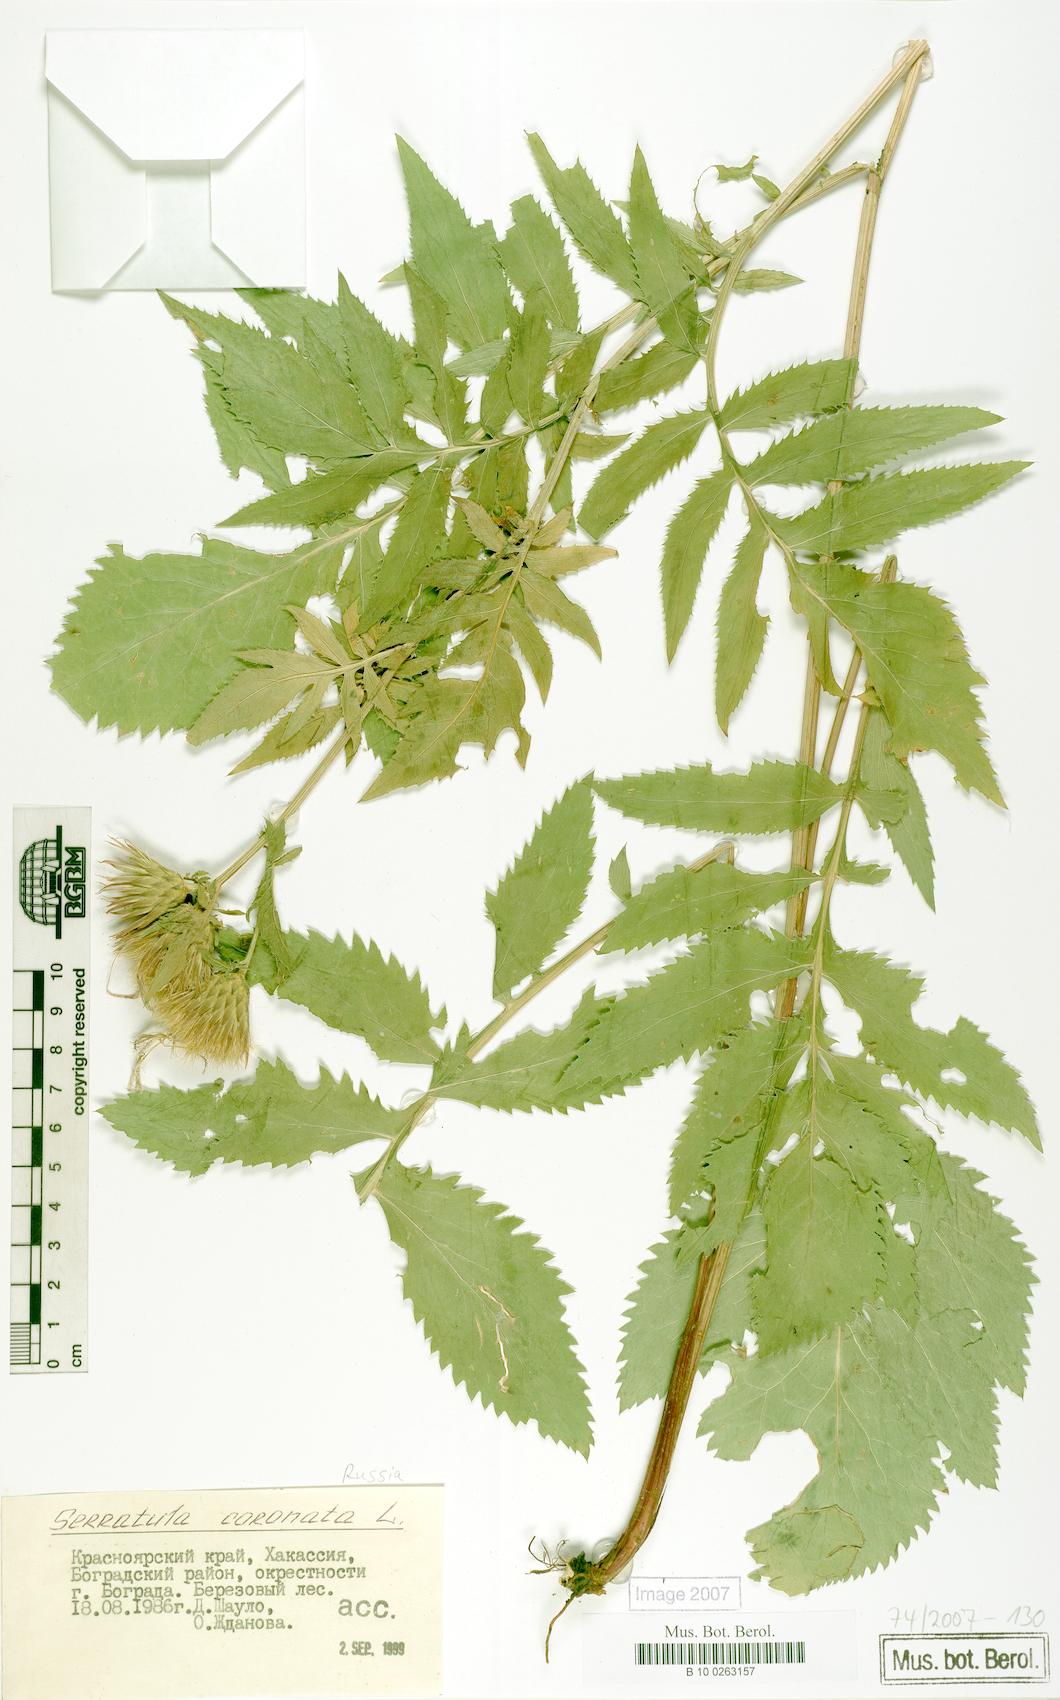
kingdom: Plantae
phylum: Tracheophyta
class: Magnoliopsida
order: Asterales
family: Asteraceae
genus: Serratula
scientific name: Serratula coronata
